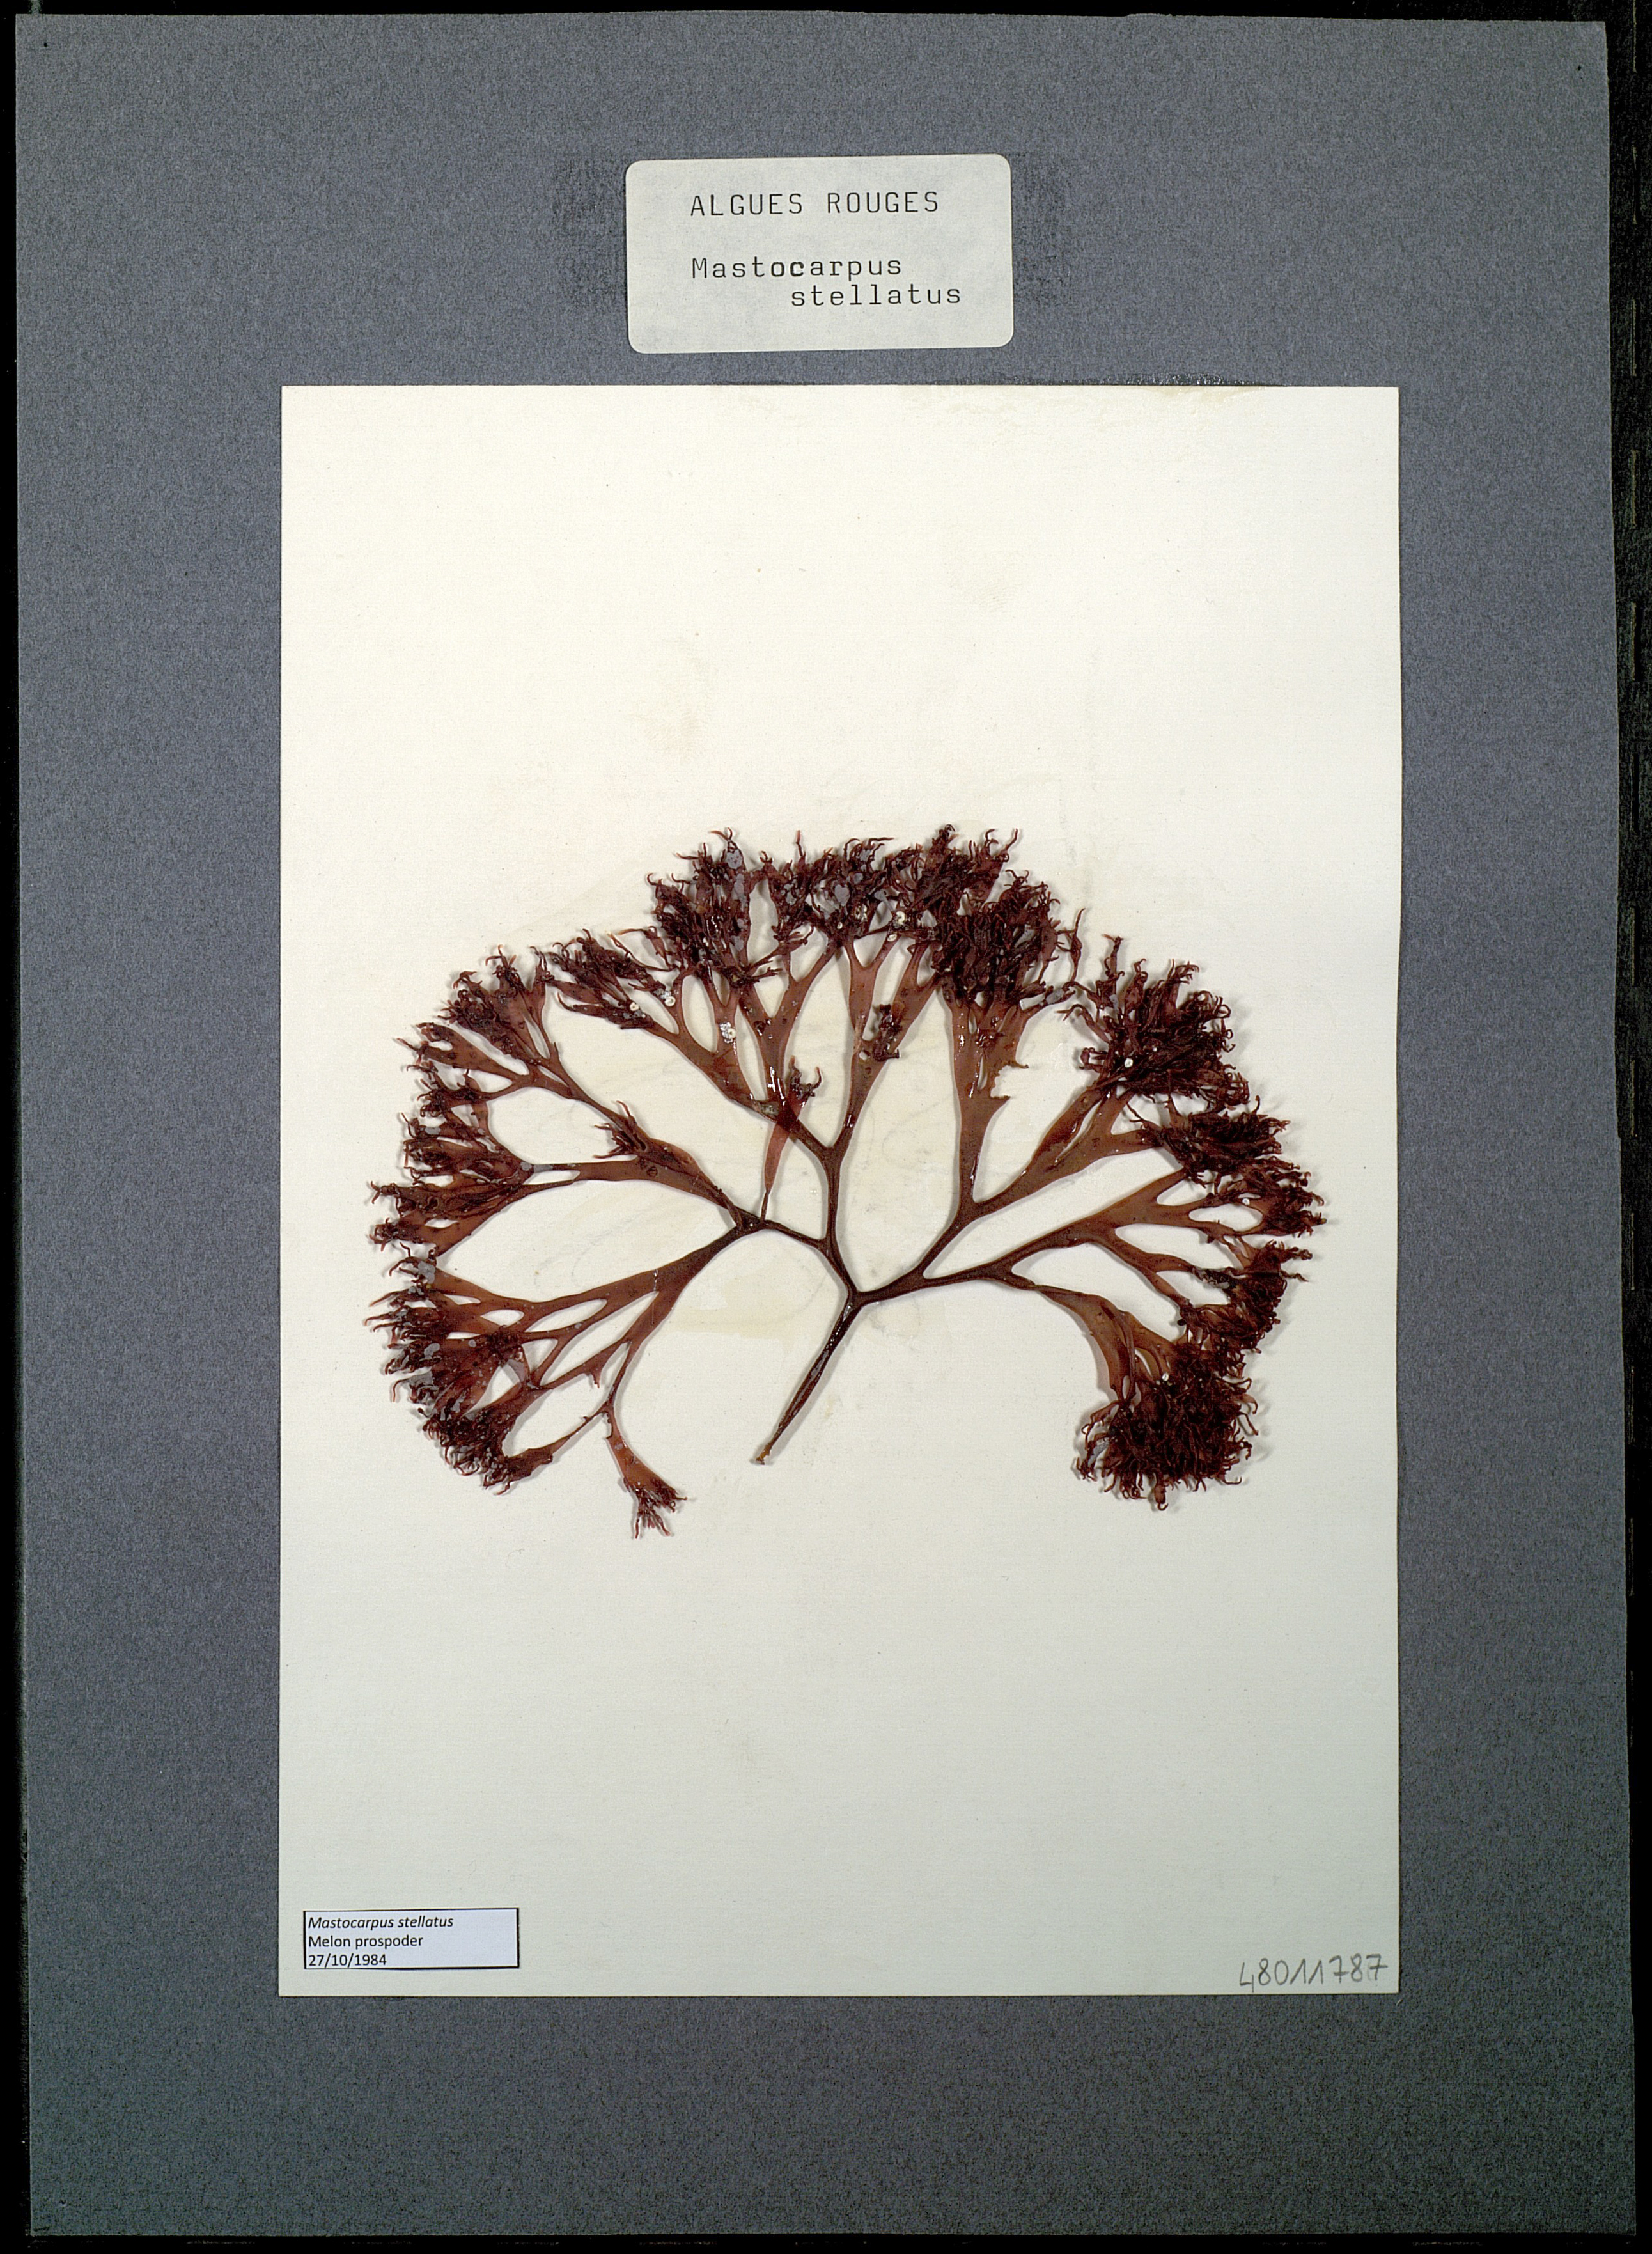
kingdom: Plantae
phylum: Rhodophyta
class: Florideophyceae
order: Gigartinales
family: Phyllophoraceae
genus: Mastocarpus
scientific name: Mastocarpus stellatus
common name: False irish moss
